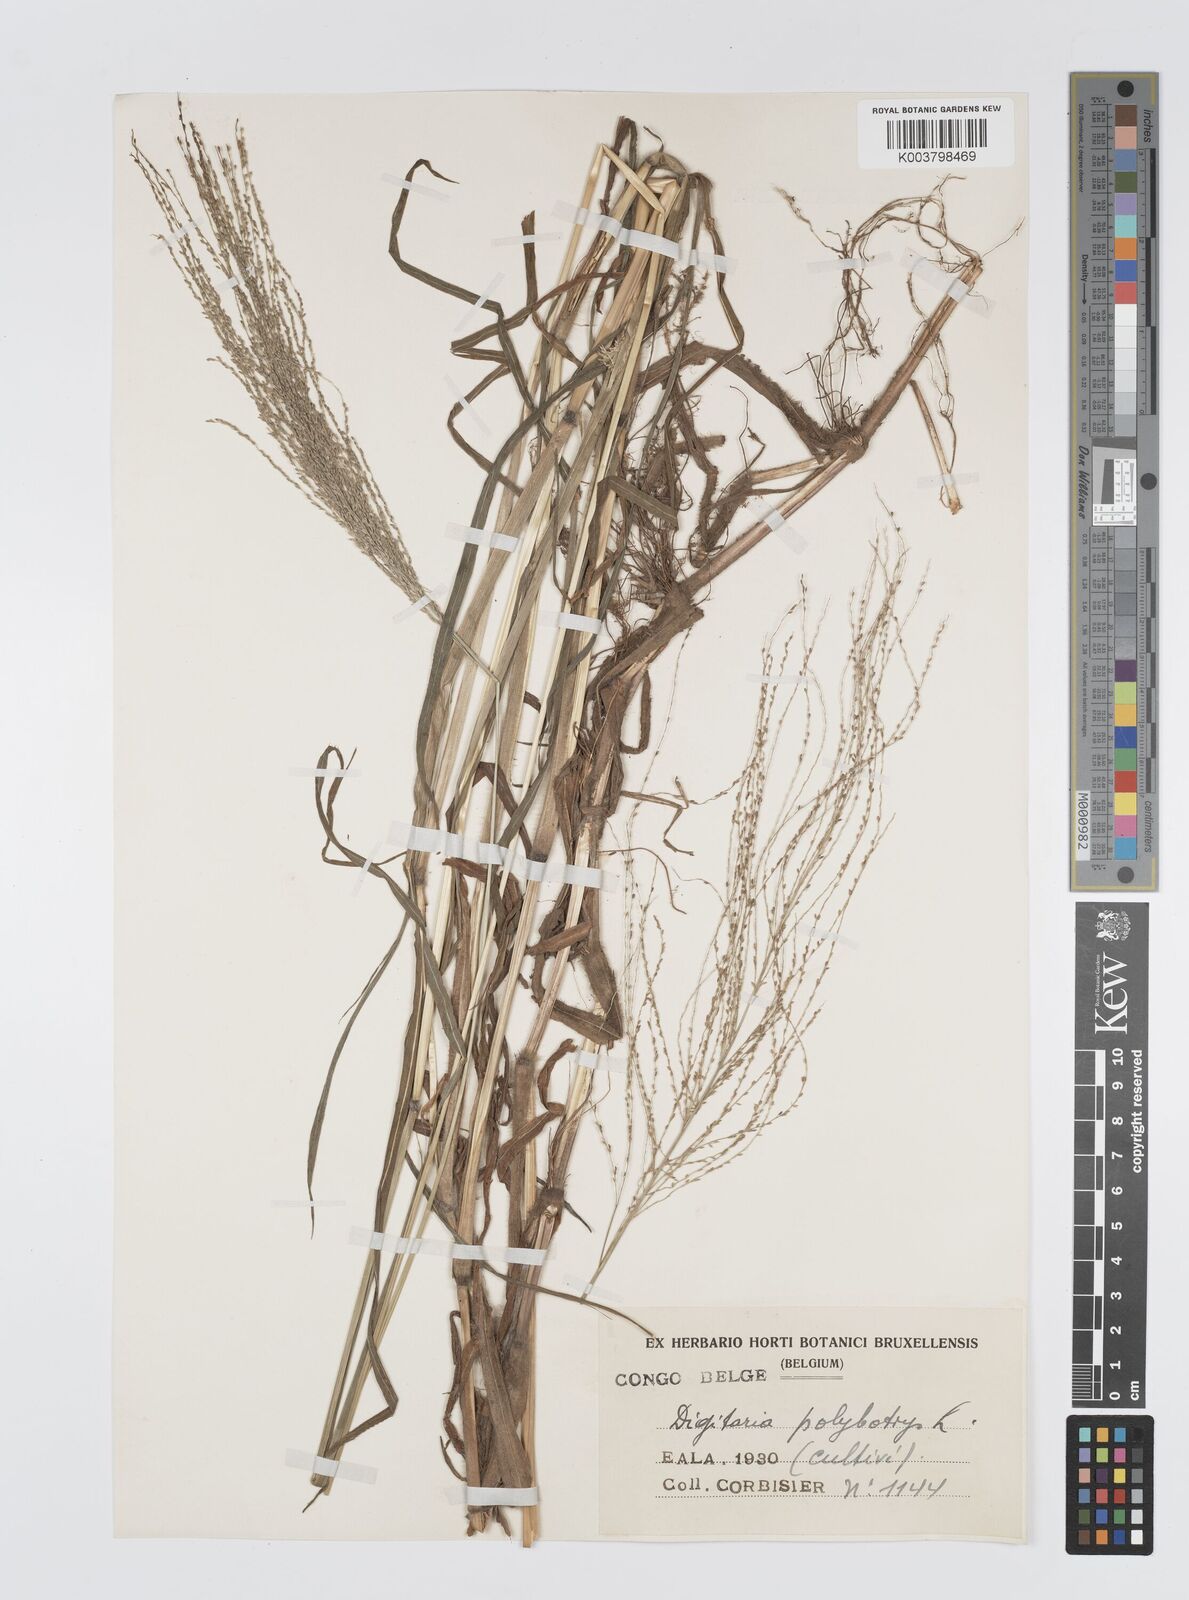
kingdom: Plantae
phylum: Tracheophyta
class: Liliopsida
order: Poales
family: Poaceae
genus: Digitaria
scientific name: Digitaria leptorhachis
